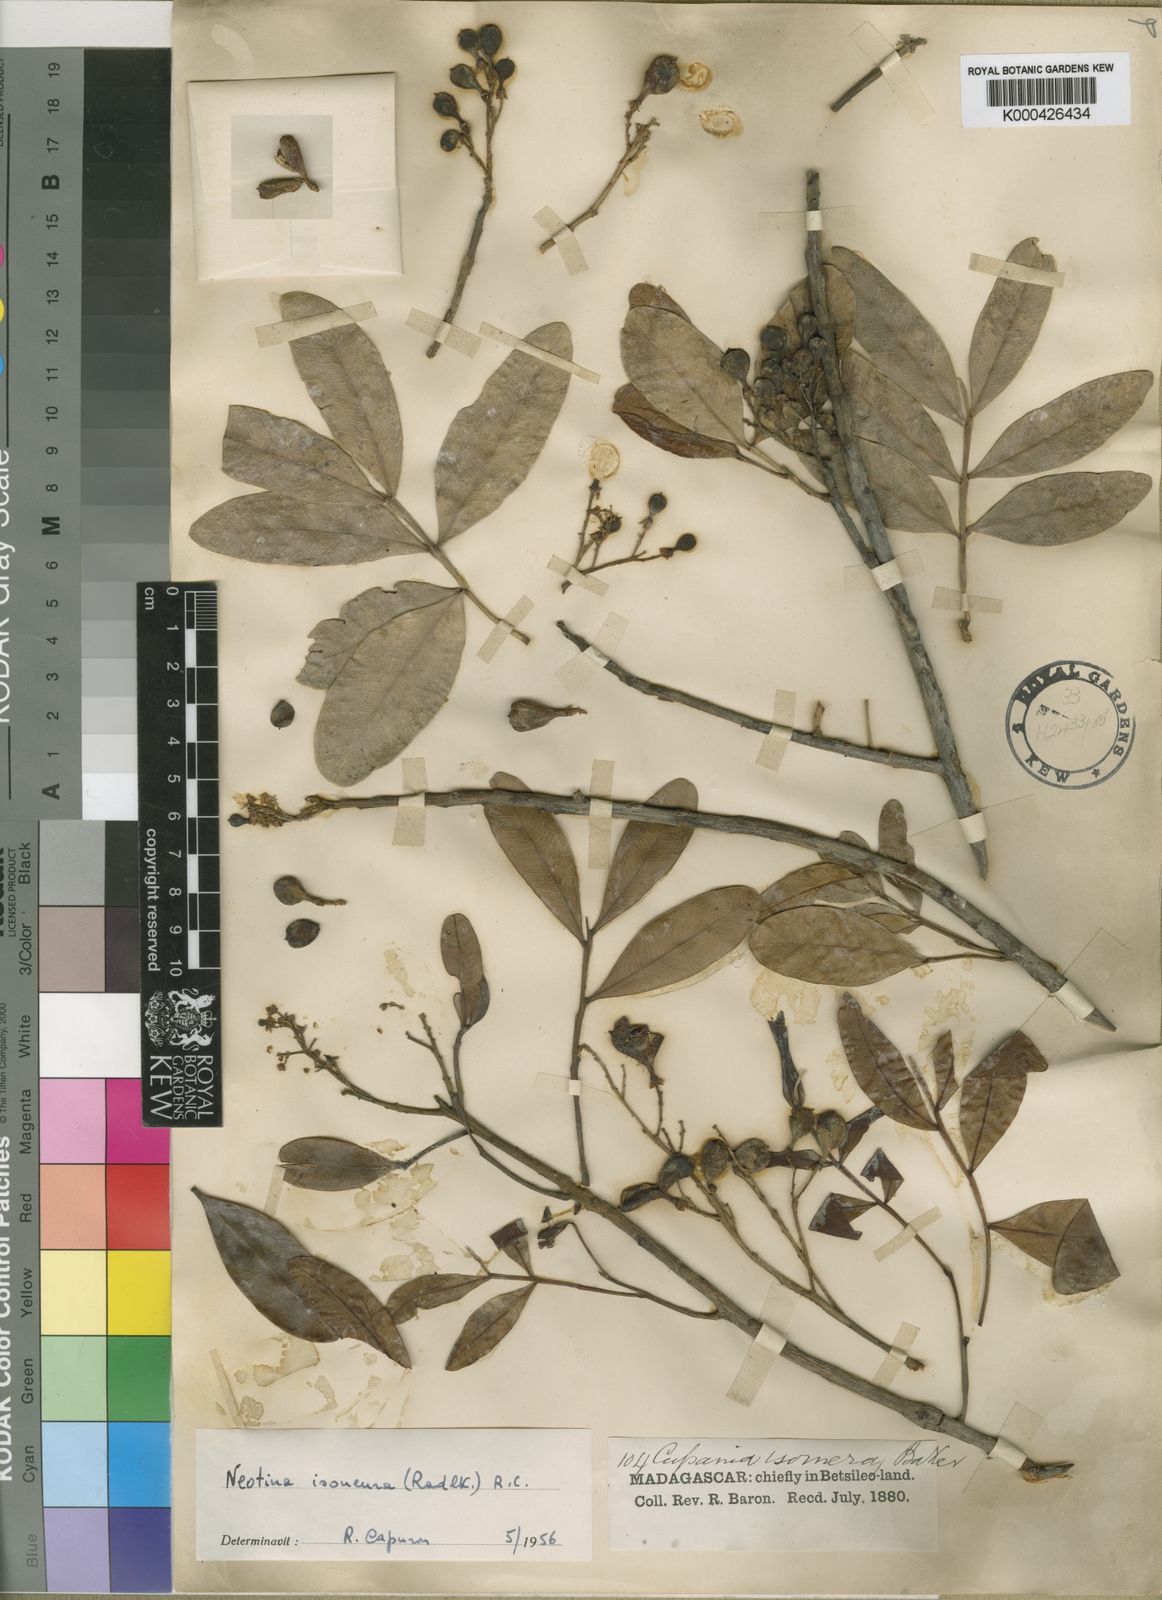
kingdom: Plantae
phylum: Tracheophyta
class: Magnoliopsida
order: Sapindales
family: Sapindaceae
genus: Tina
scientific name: Tina isoneura
